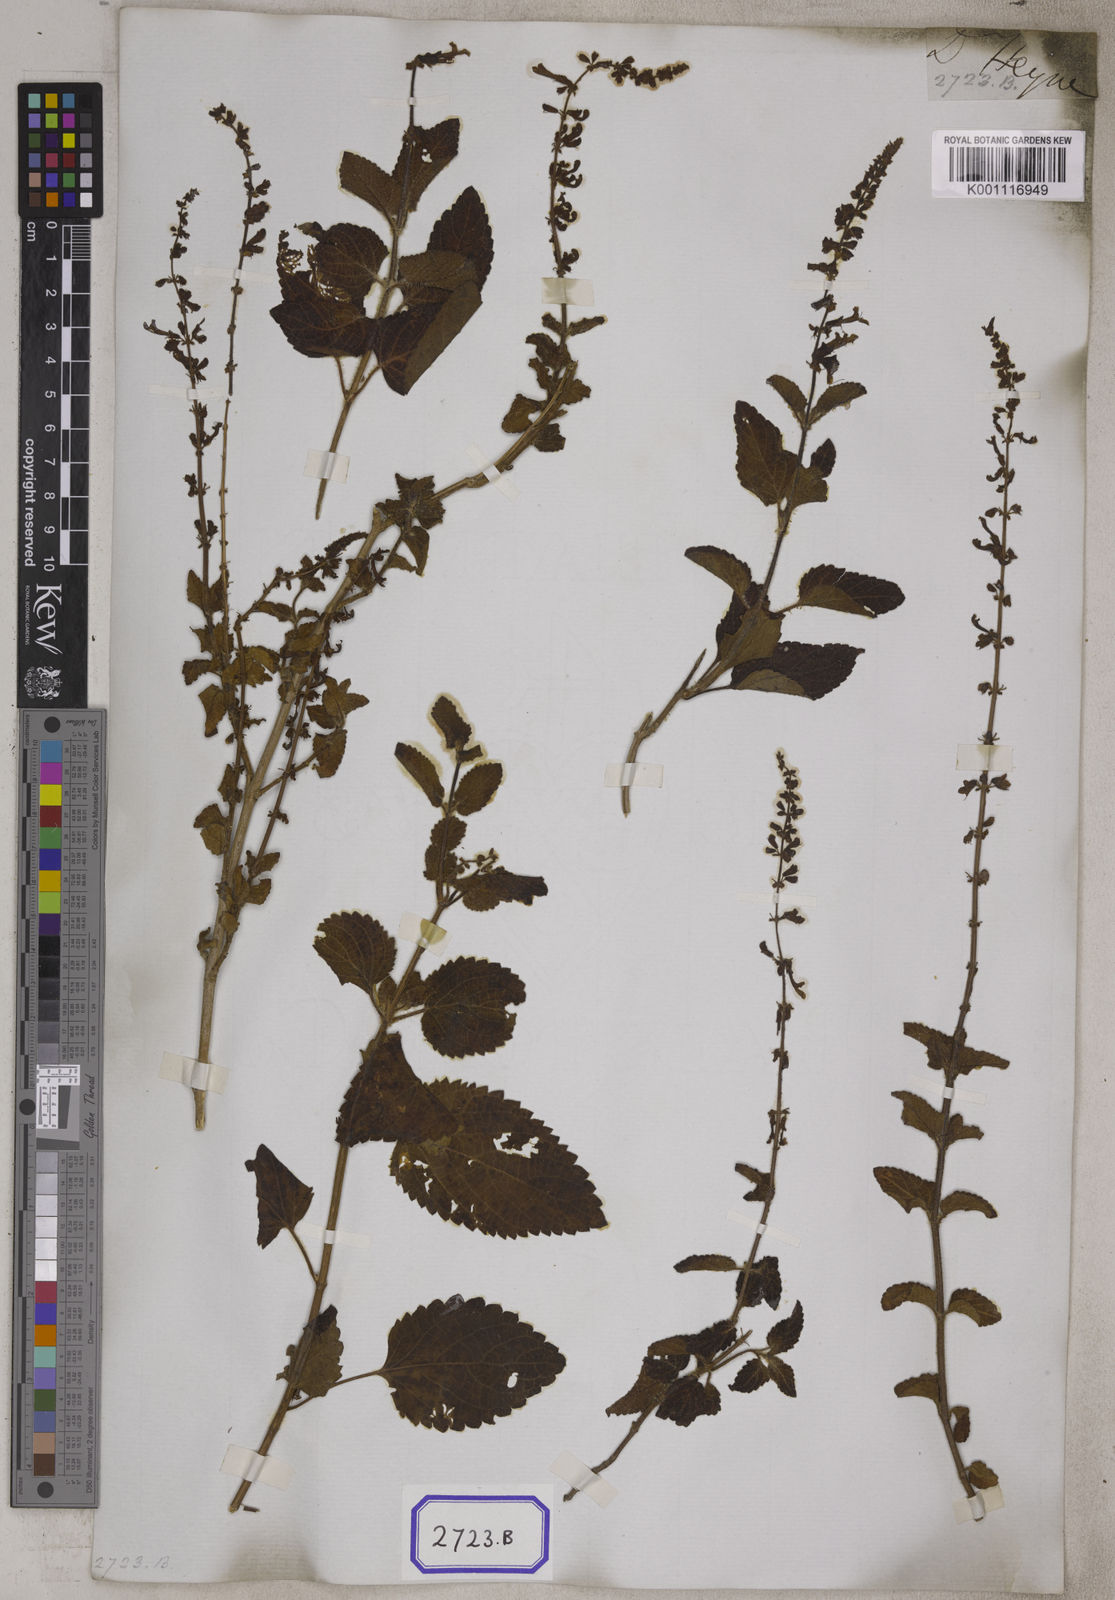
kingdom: Plantae
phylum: Tracheophyta
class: Magnoliopsida
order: Lamiales
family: Lamiaceae
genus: Orthosiphon
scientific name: Orthosiphon thymiflorus
